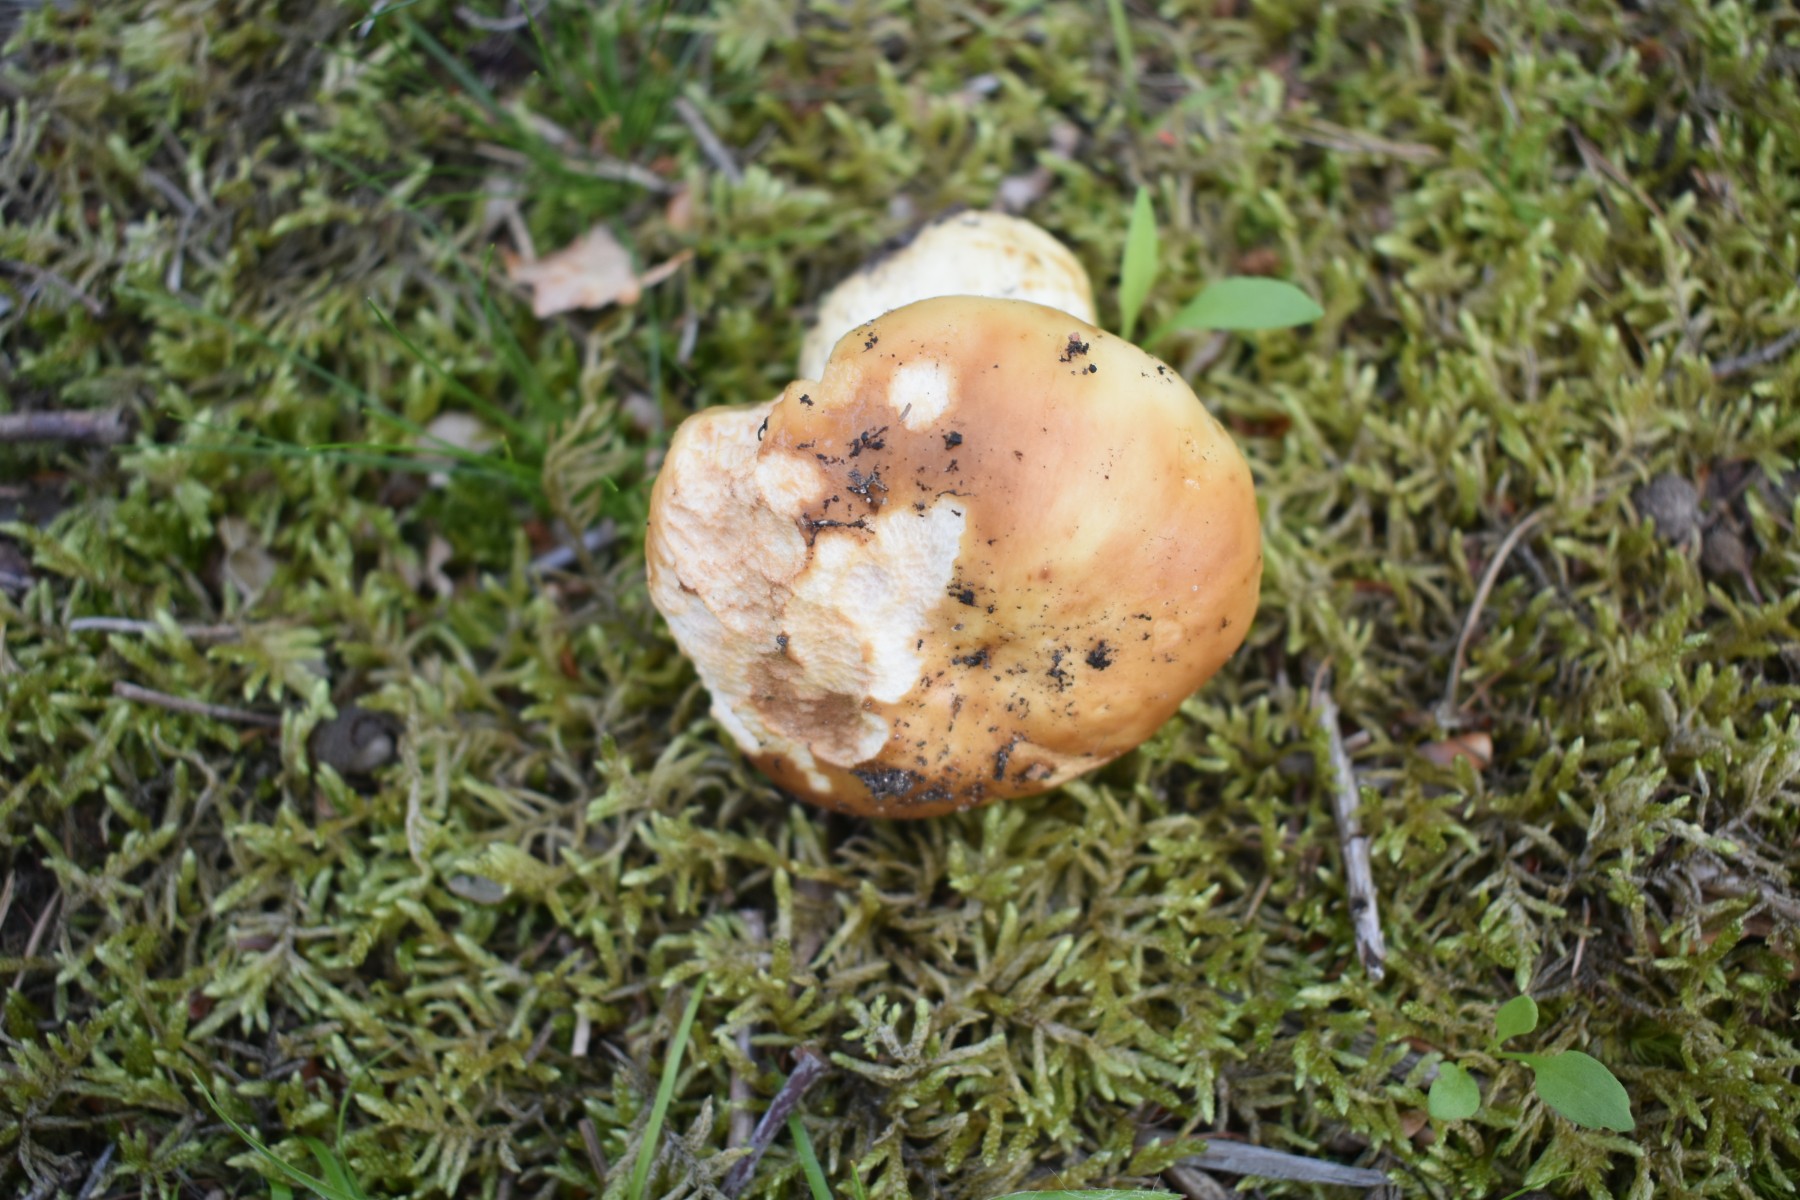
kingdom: Fungi
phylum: Basidiomycota
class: Agaricomycetes
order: Russulales
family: Russulaceae
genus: Russula
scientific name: Russula grata
